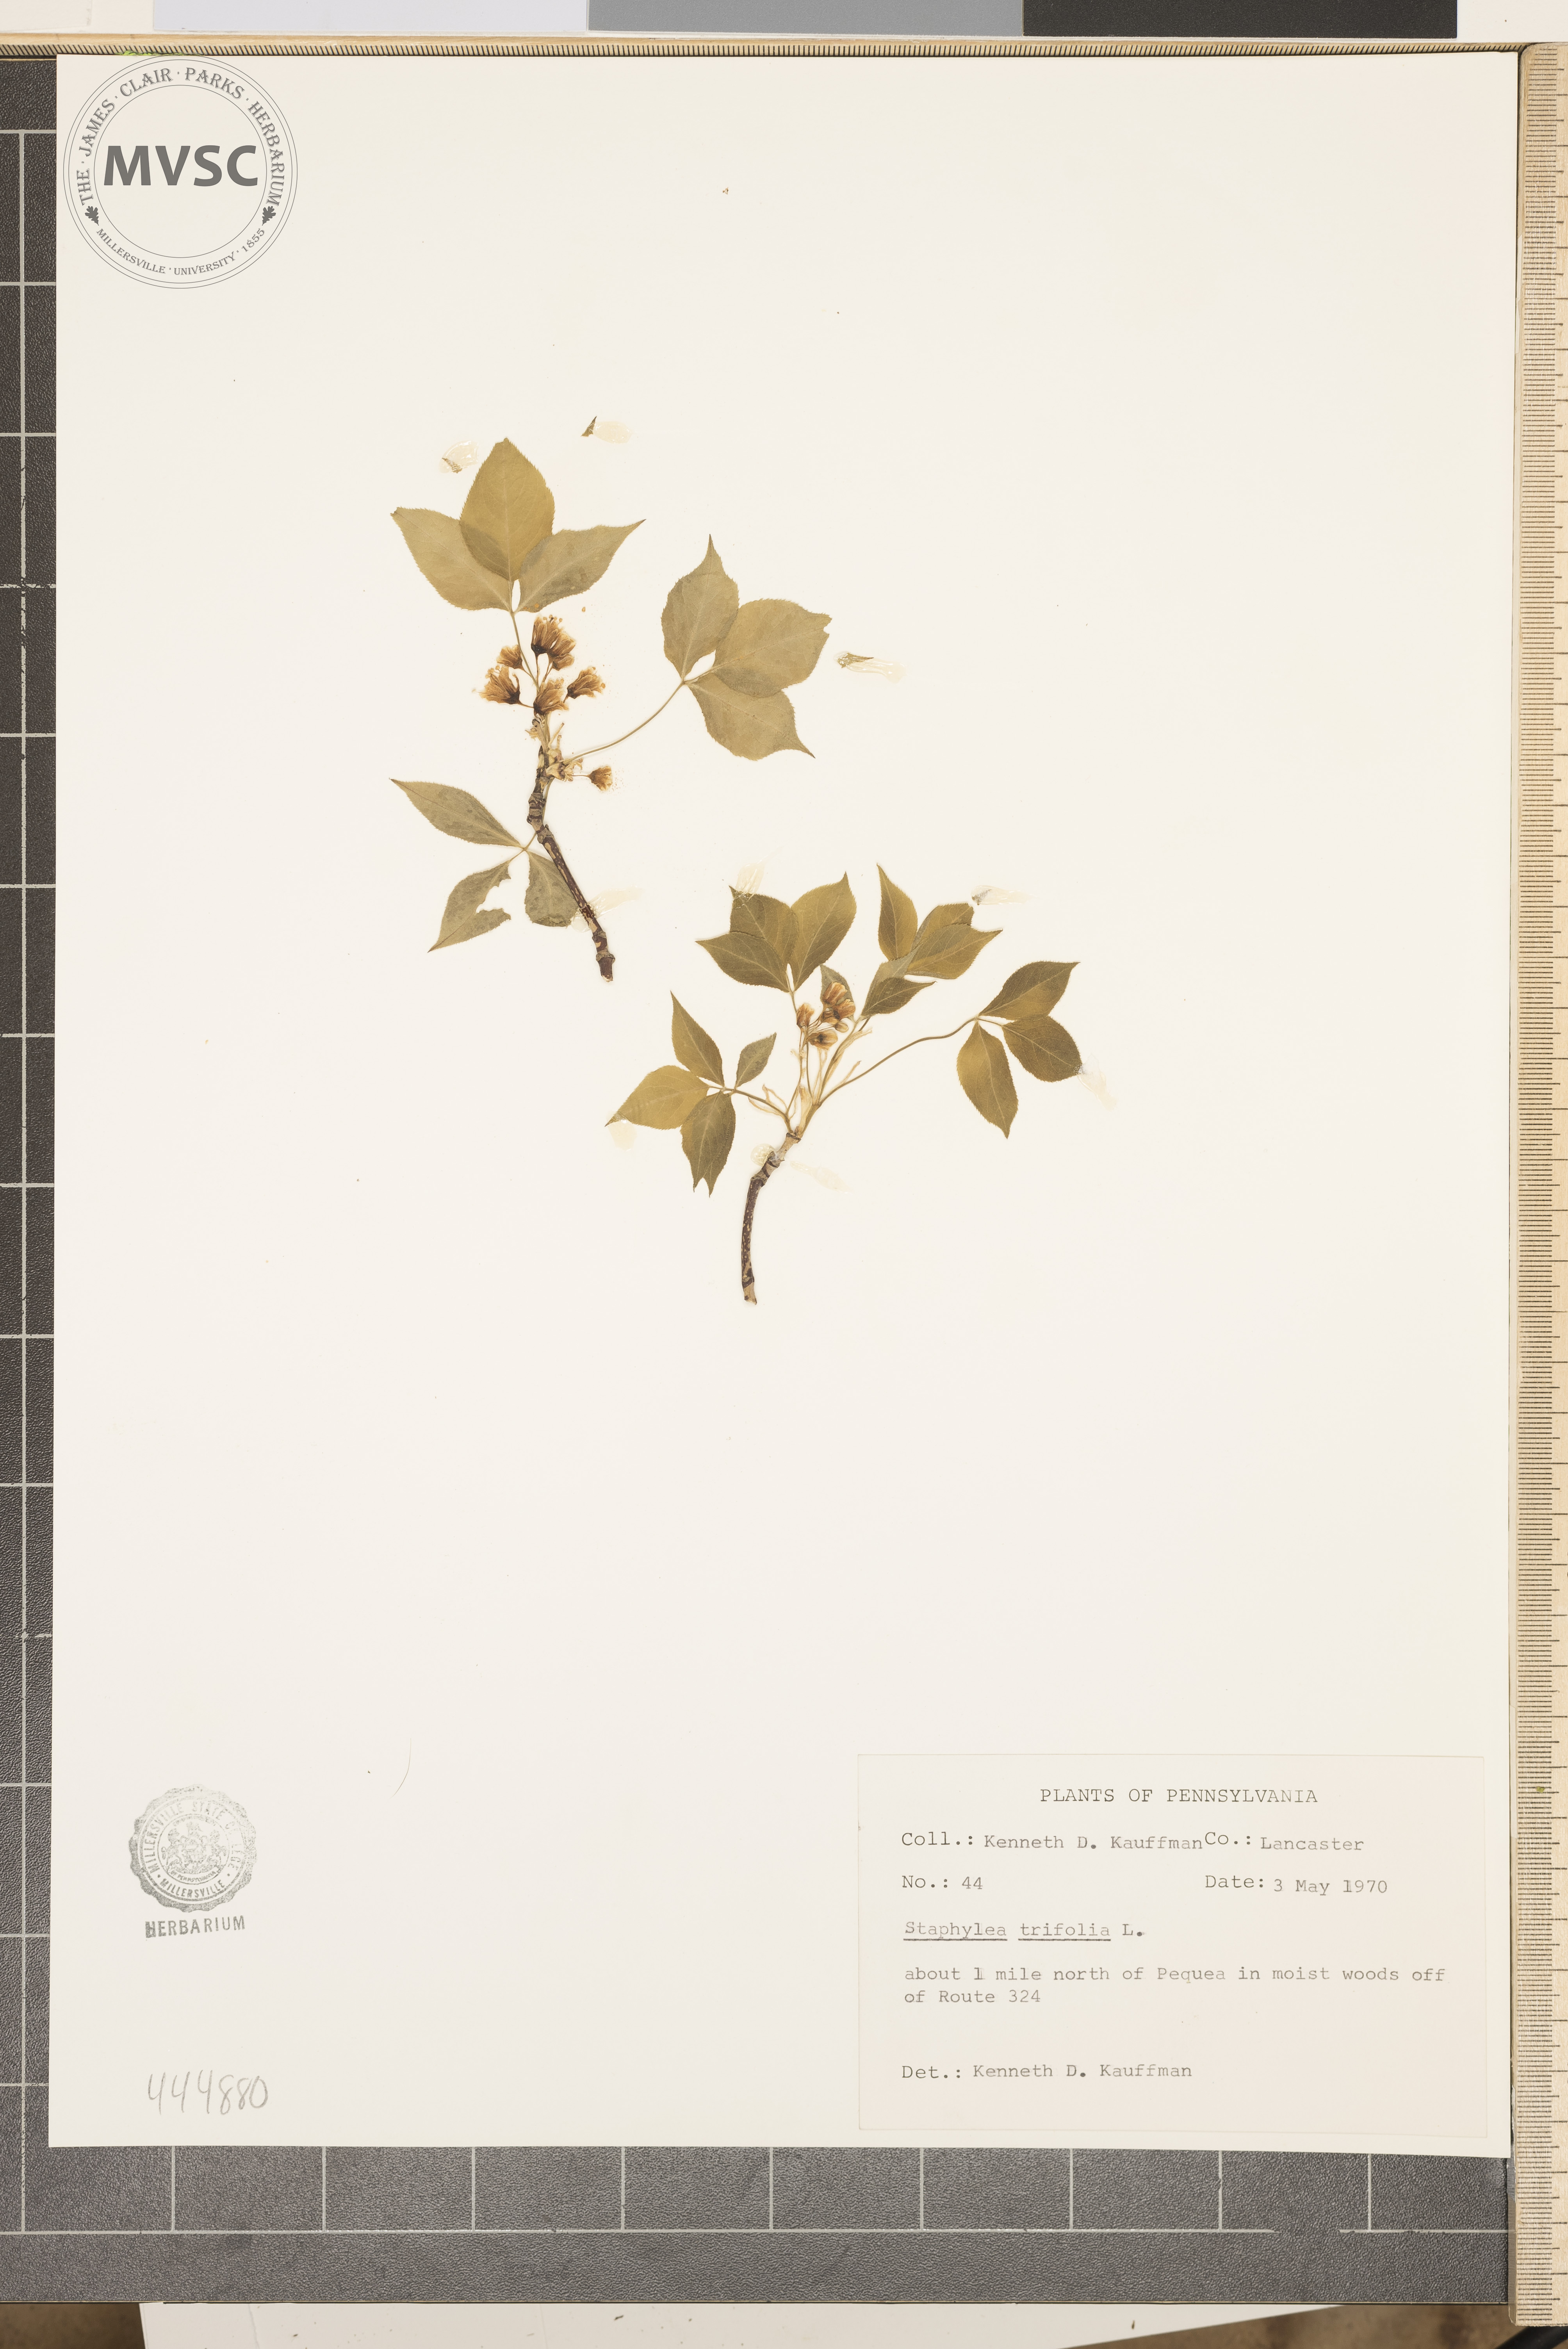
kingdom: Plantae
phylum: Tracheophyta
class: Magnoliopsida
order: Crossosomatales
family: Staphyleaceae
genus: Staphylea
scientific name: Staphylea trifolia
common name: American bladdernut
